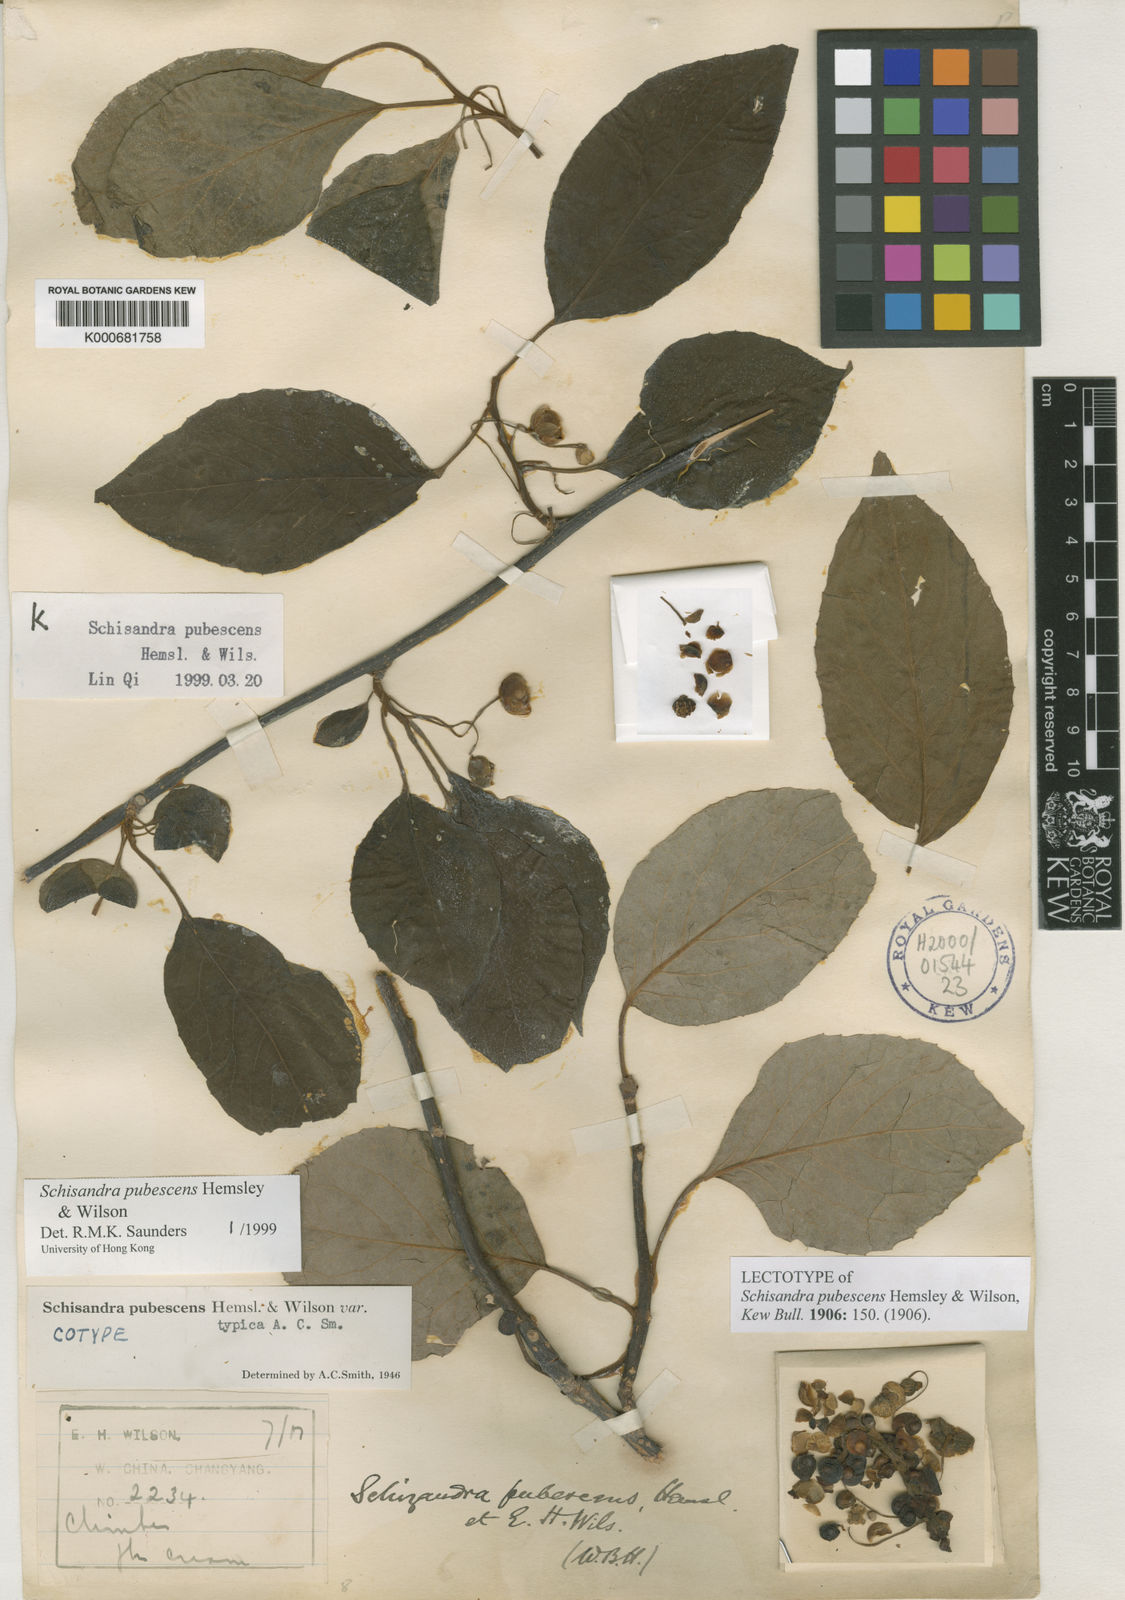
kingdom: Plantae
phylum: Tracheophyta
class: Magnoliopsida
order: Austrobaileyales
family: Schisandraceae
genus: Schisandra
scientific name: Schisandra pubescens
